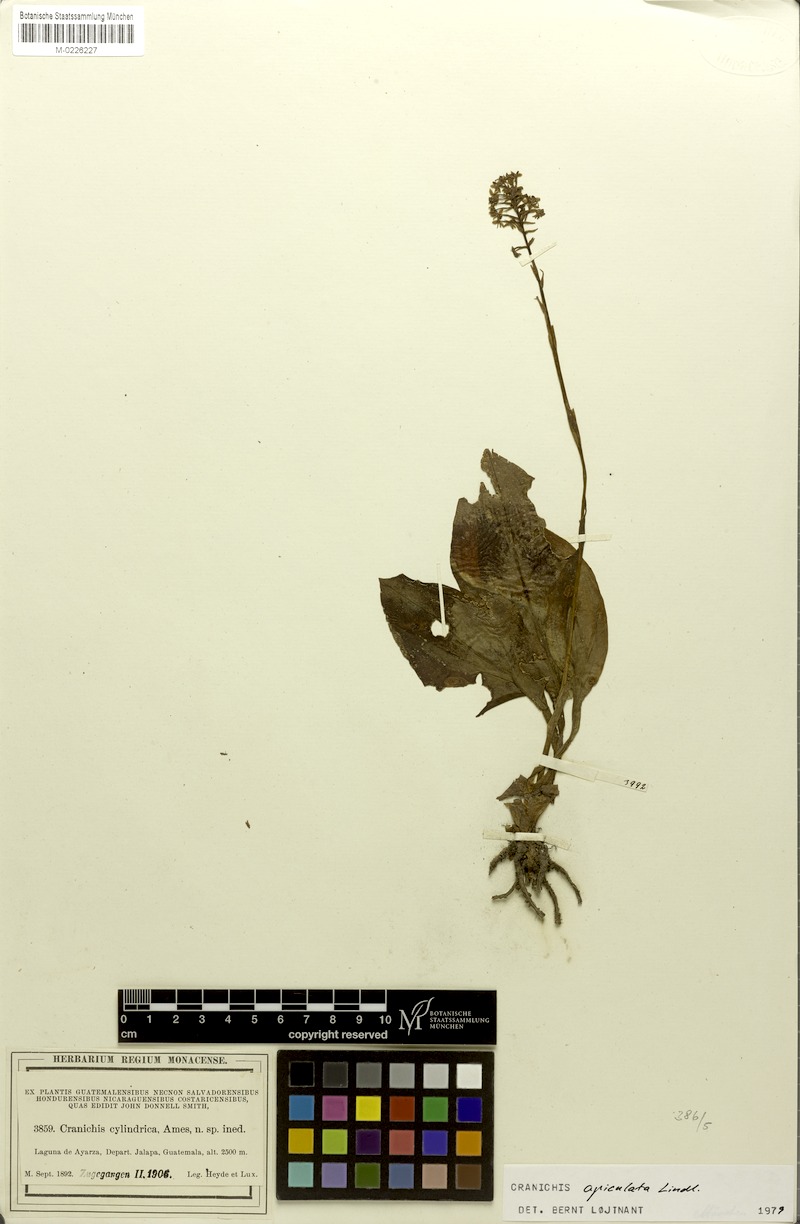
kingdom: Plantae
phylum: Tracheophyta
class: Liliopsida
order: Asparagales
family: Orchidaceae
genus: Cranichis
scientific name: Cranichis apiculata
